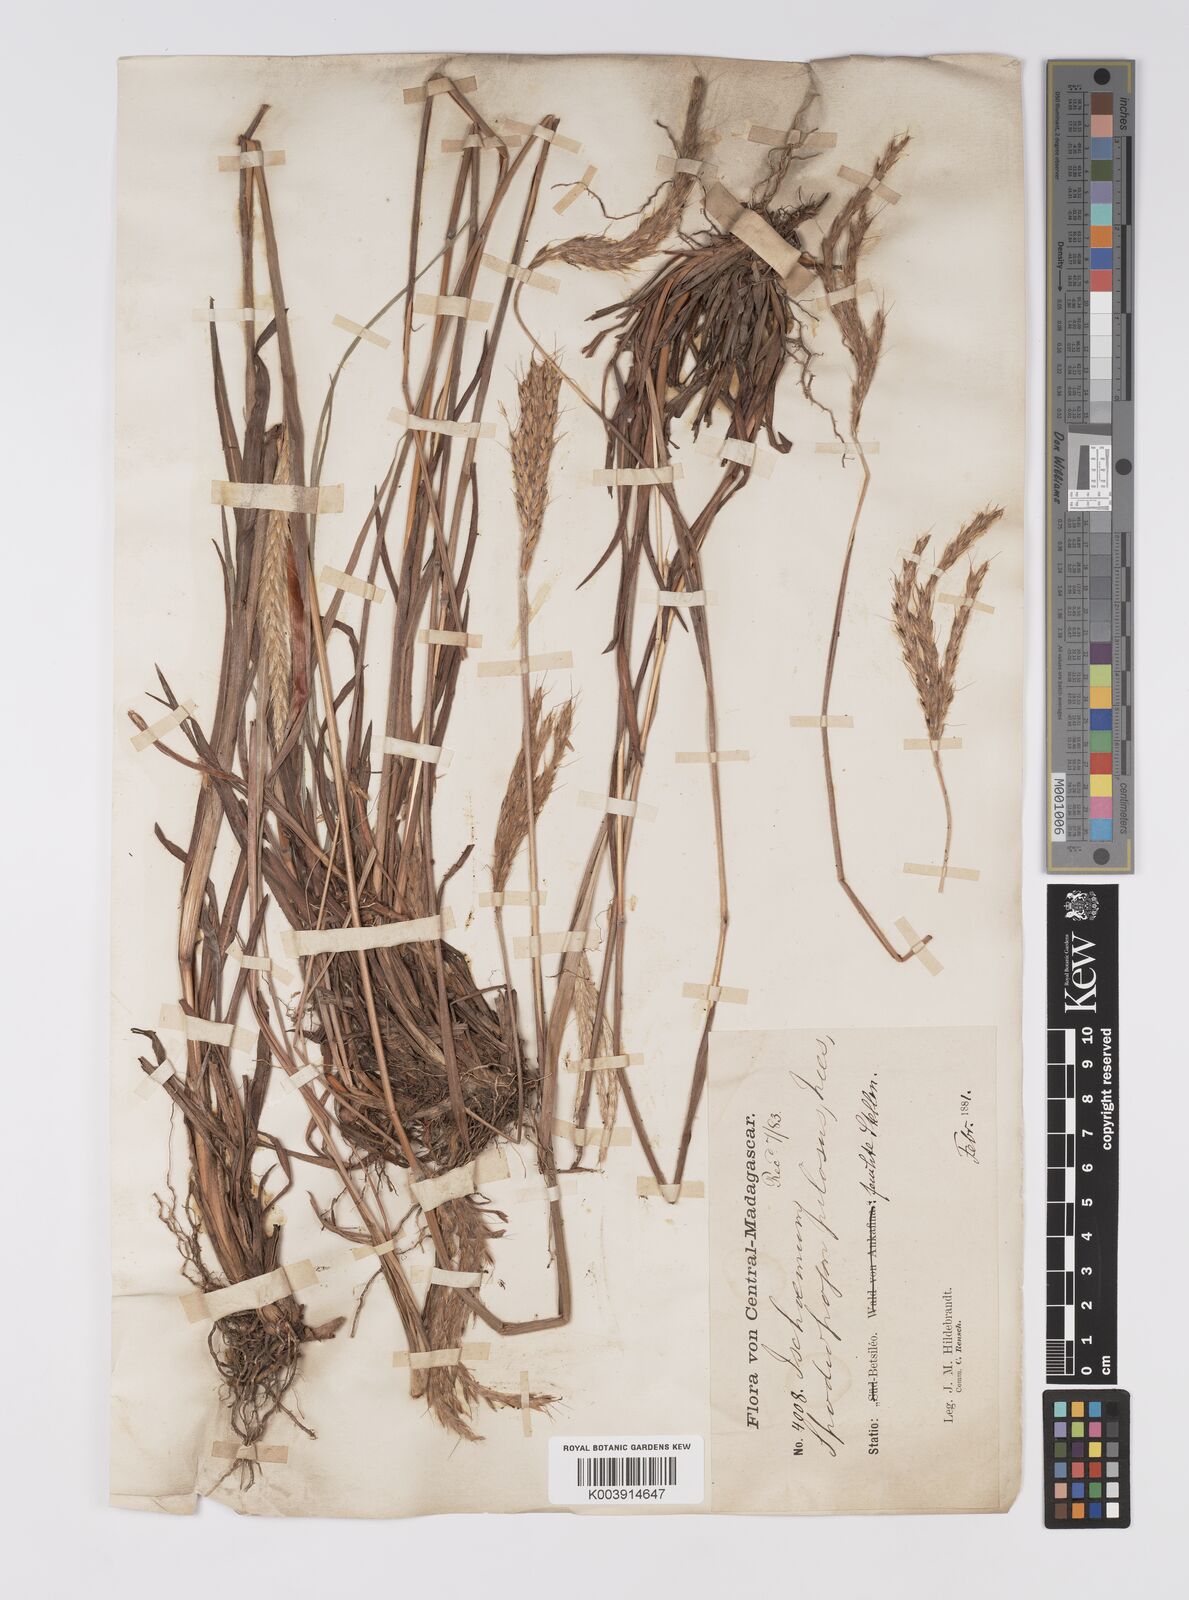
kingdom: Plantae
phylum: Tracheophyta
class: Liliopsida
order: Poales
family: Poaceae
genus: Eulalia
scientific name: Eulalia villosa
